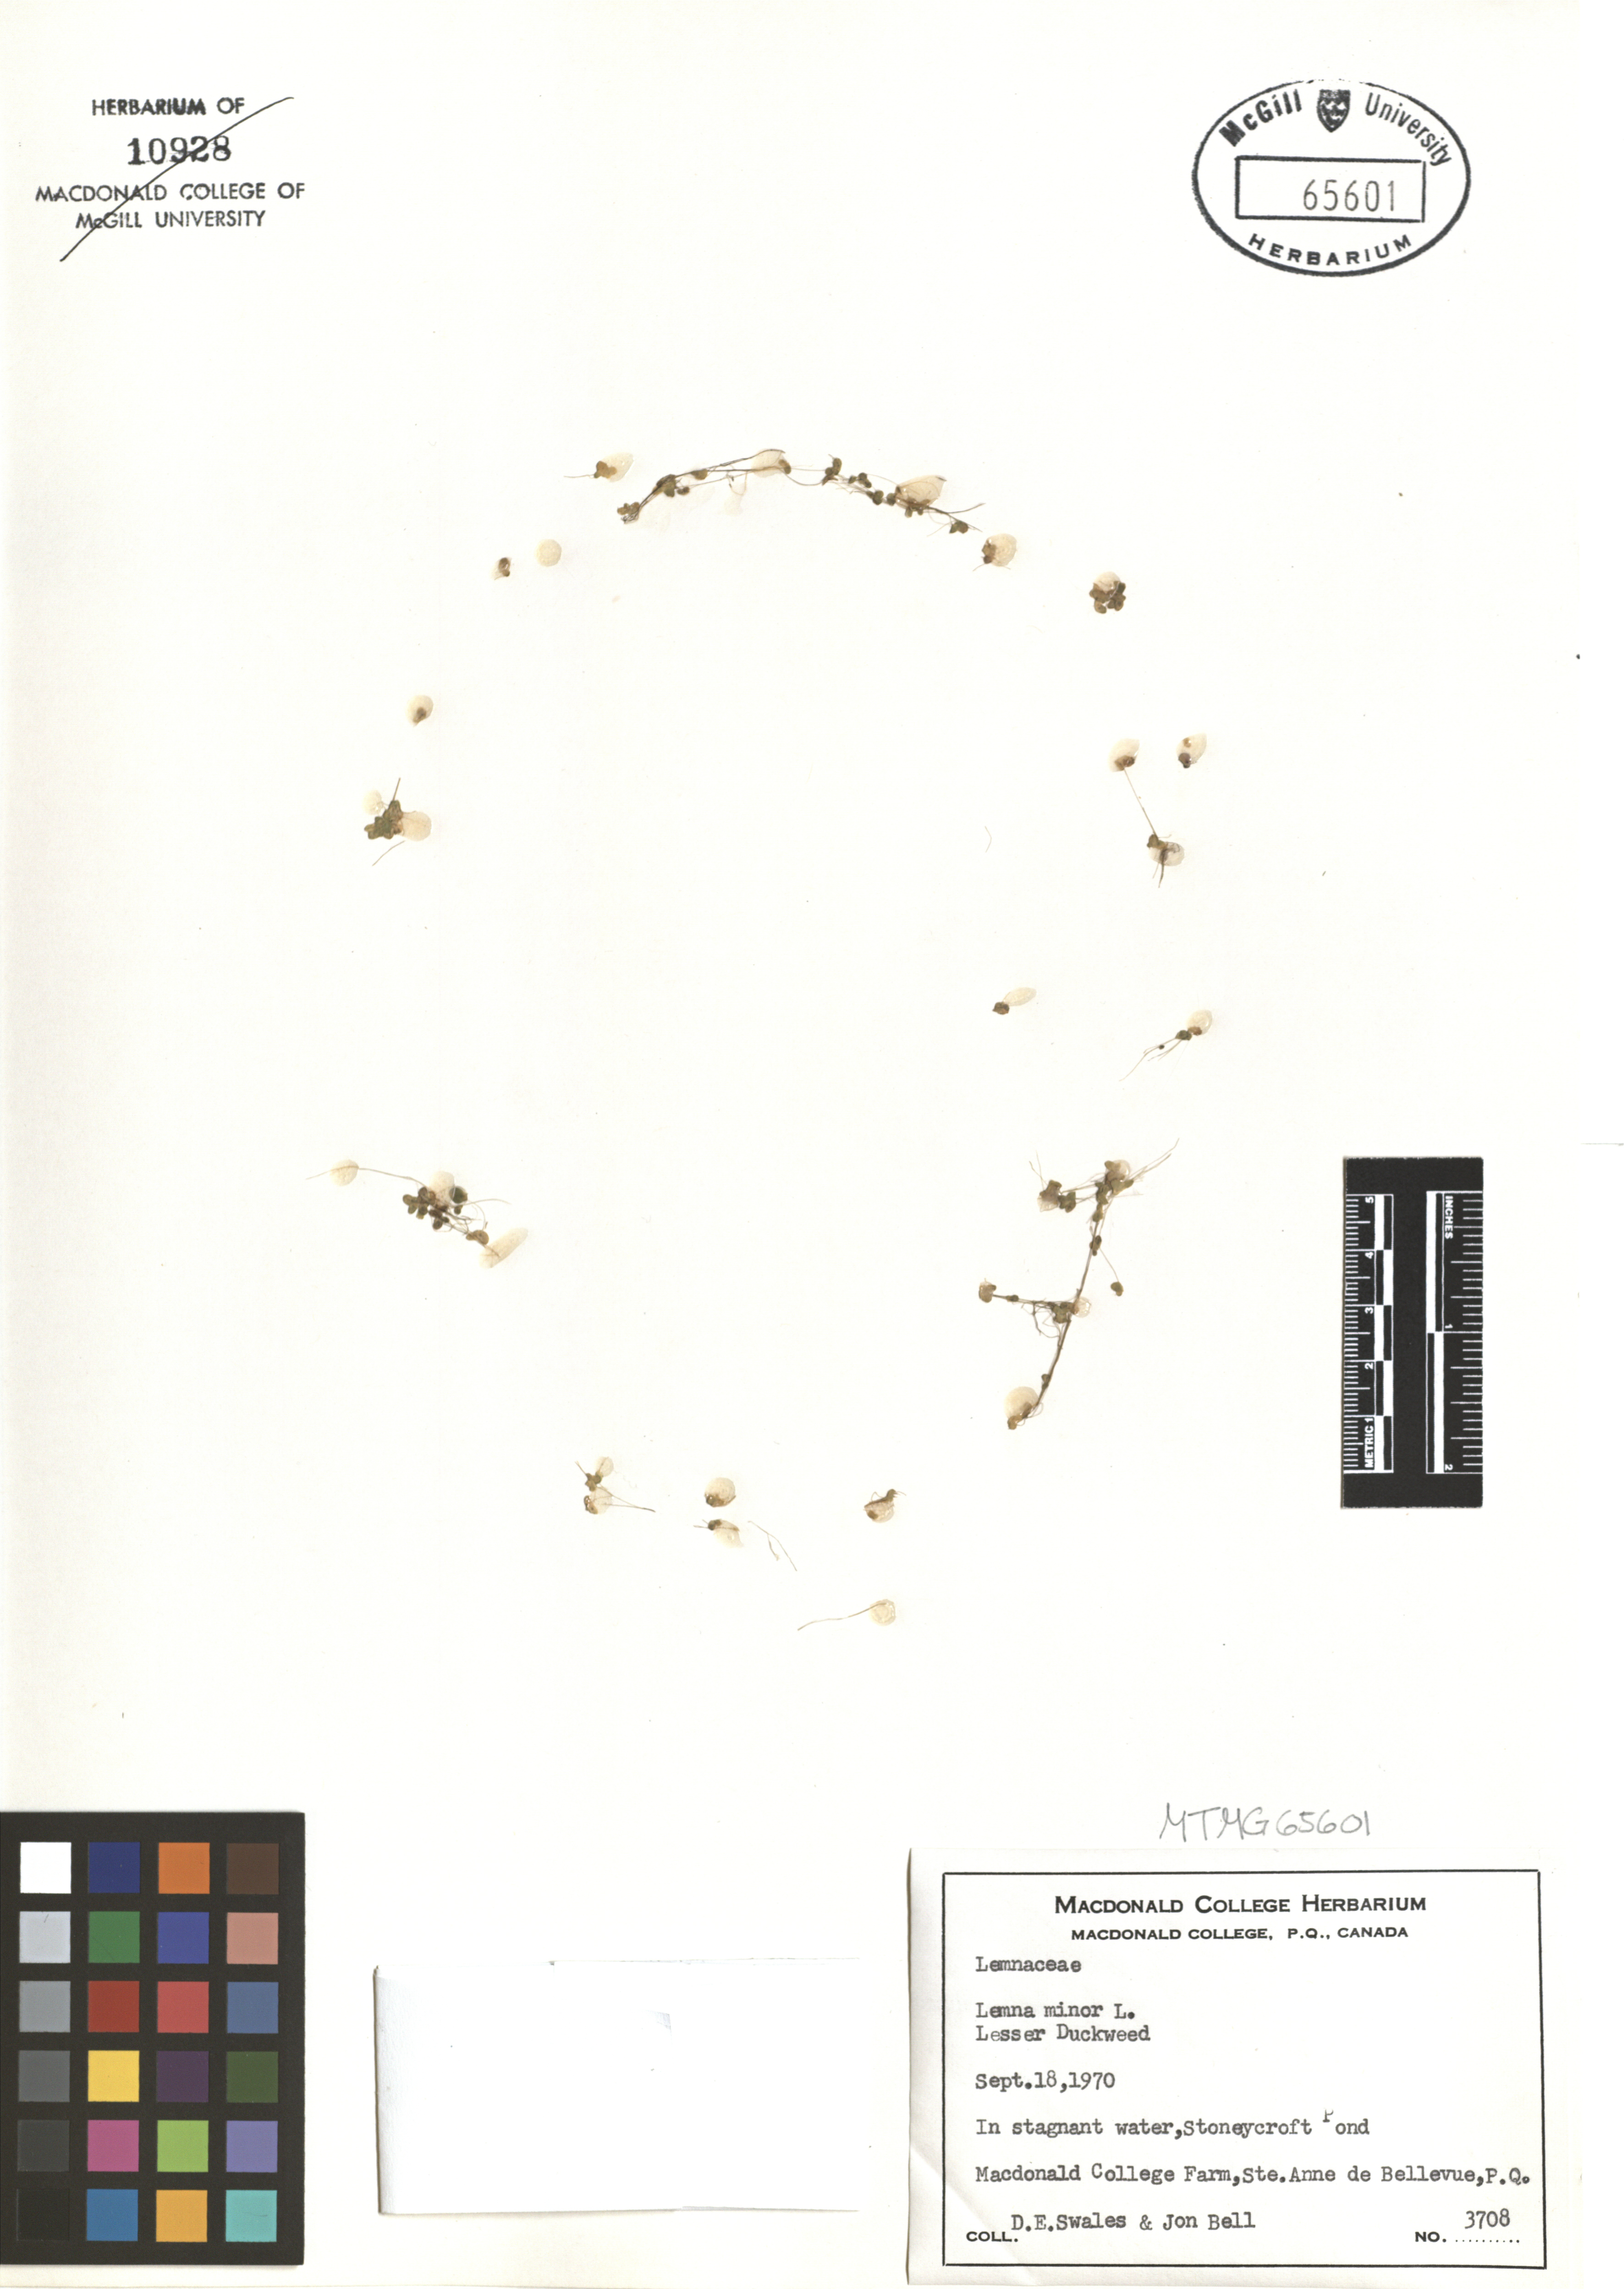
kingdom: Plantae
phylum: Tracheophyta
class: Liliopsida
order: Alismatales
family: Araceae
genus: Lemna
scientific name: Lemna minor
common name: Common duckweed
